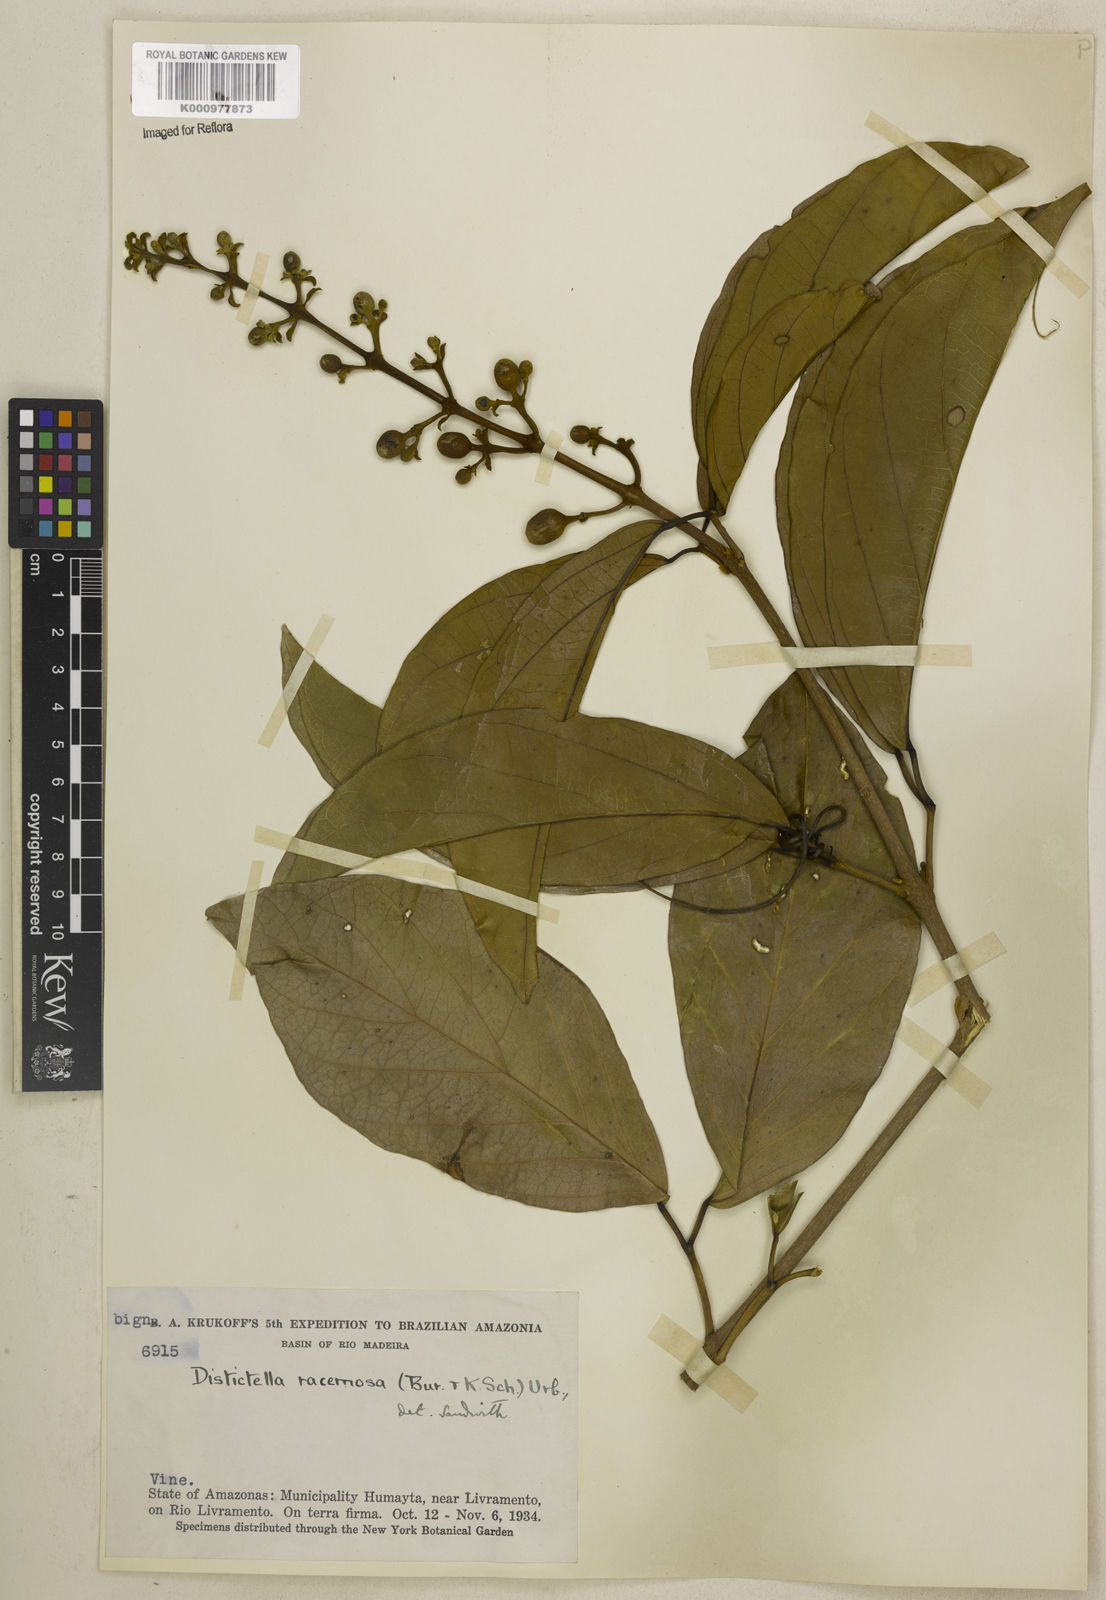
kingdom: Plantae
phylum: Tracheophyta
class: Magnoliopsida
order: Lamiales
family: Bignoniaceae
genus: Amphilophium
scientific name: Amphilophium racemosum
